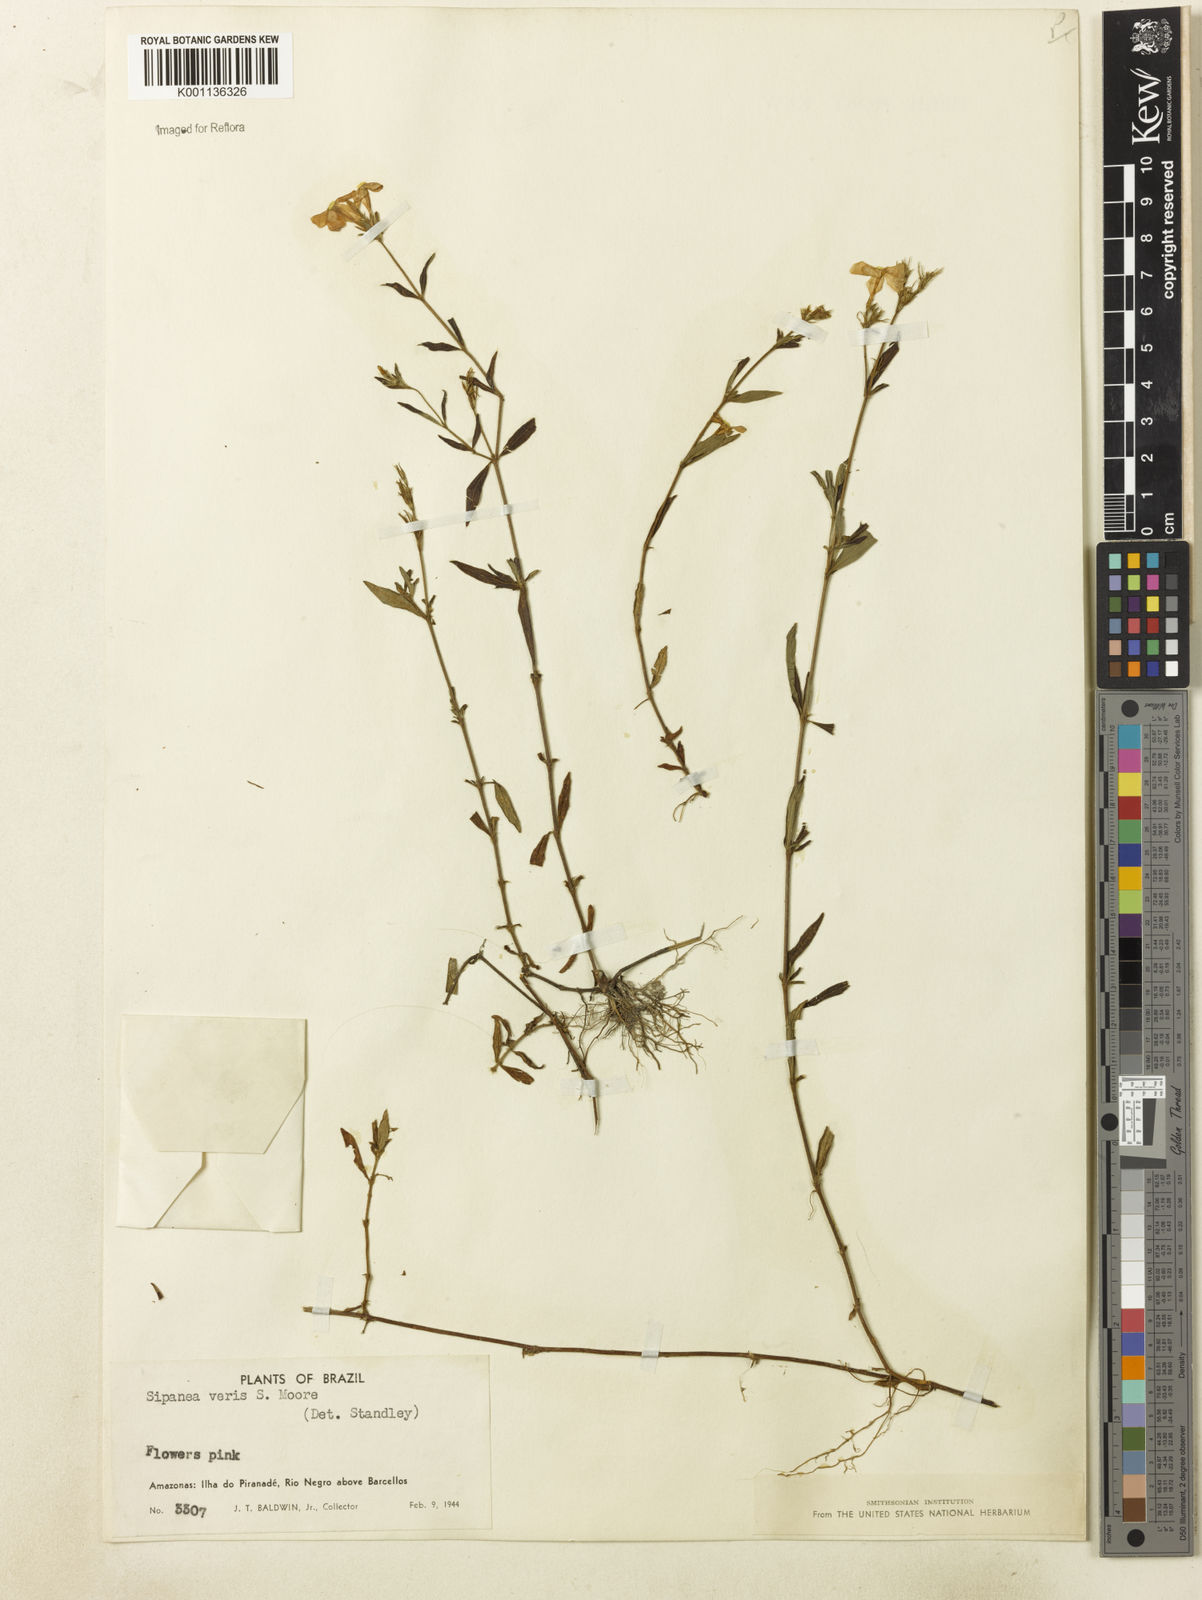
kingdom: Plantae
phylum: Tracheophyta
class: Magnoliopsida
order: Gentianales
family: Rubiaceae
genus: Sipanea
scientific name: Sipanea veris
